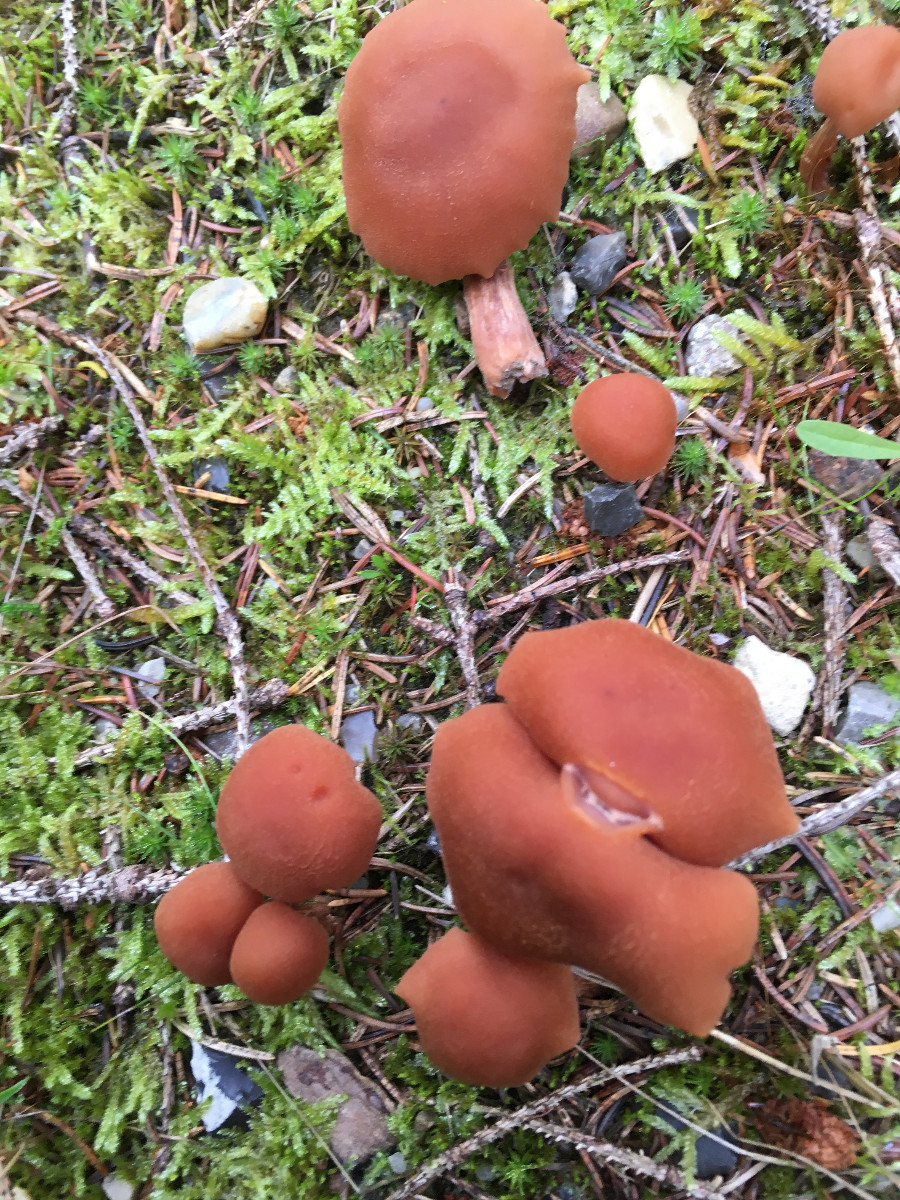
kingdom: Fungi
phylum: Basidiomycota
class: Agaricomycetes
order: Agaricales
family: Hydnangiaceae
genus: Laccaria
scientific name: Laccaria bicolor
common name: tvefarvet ametysthat
